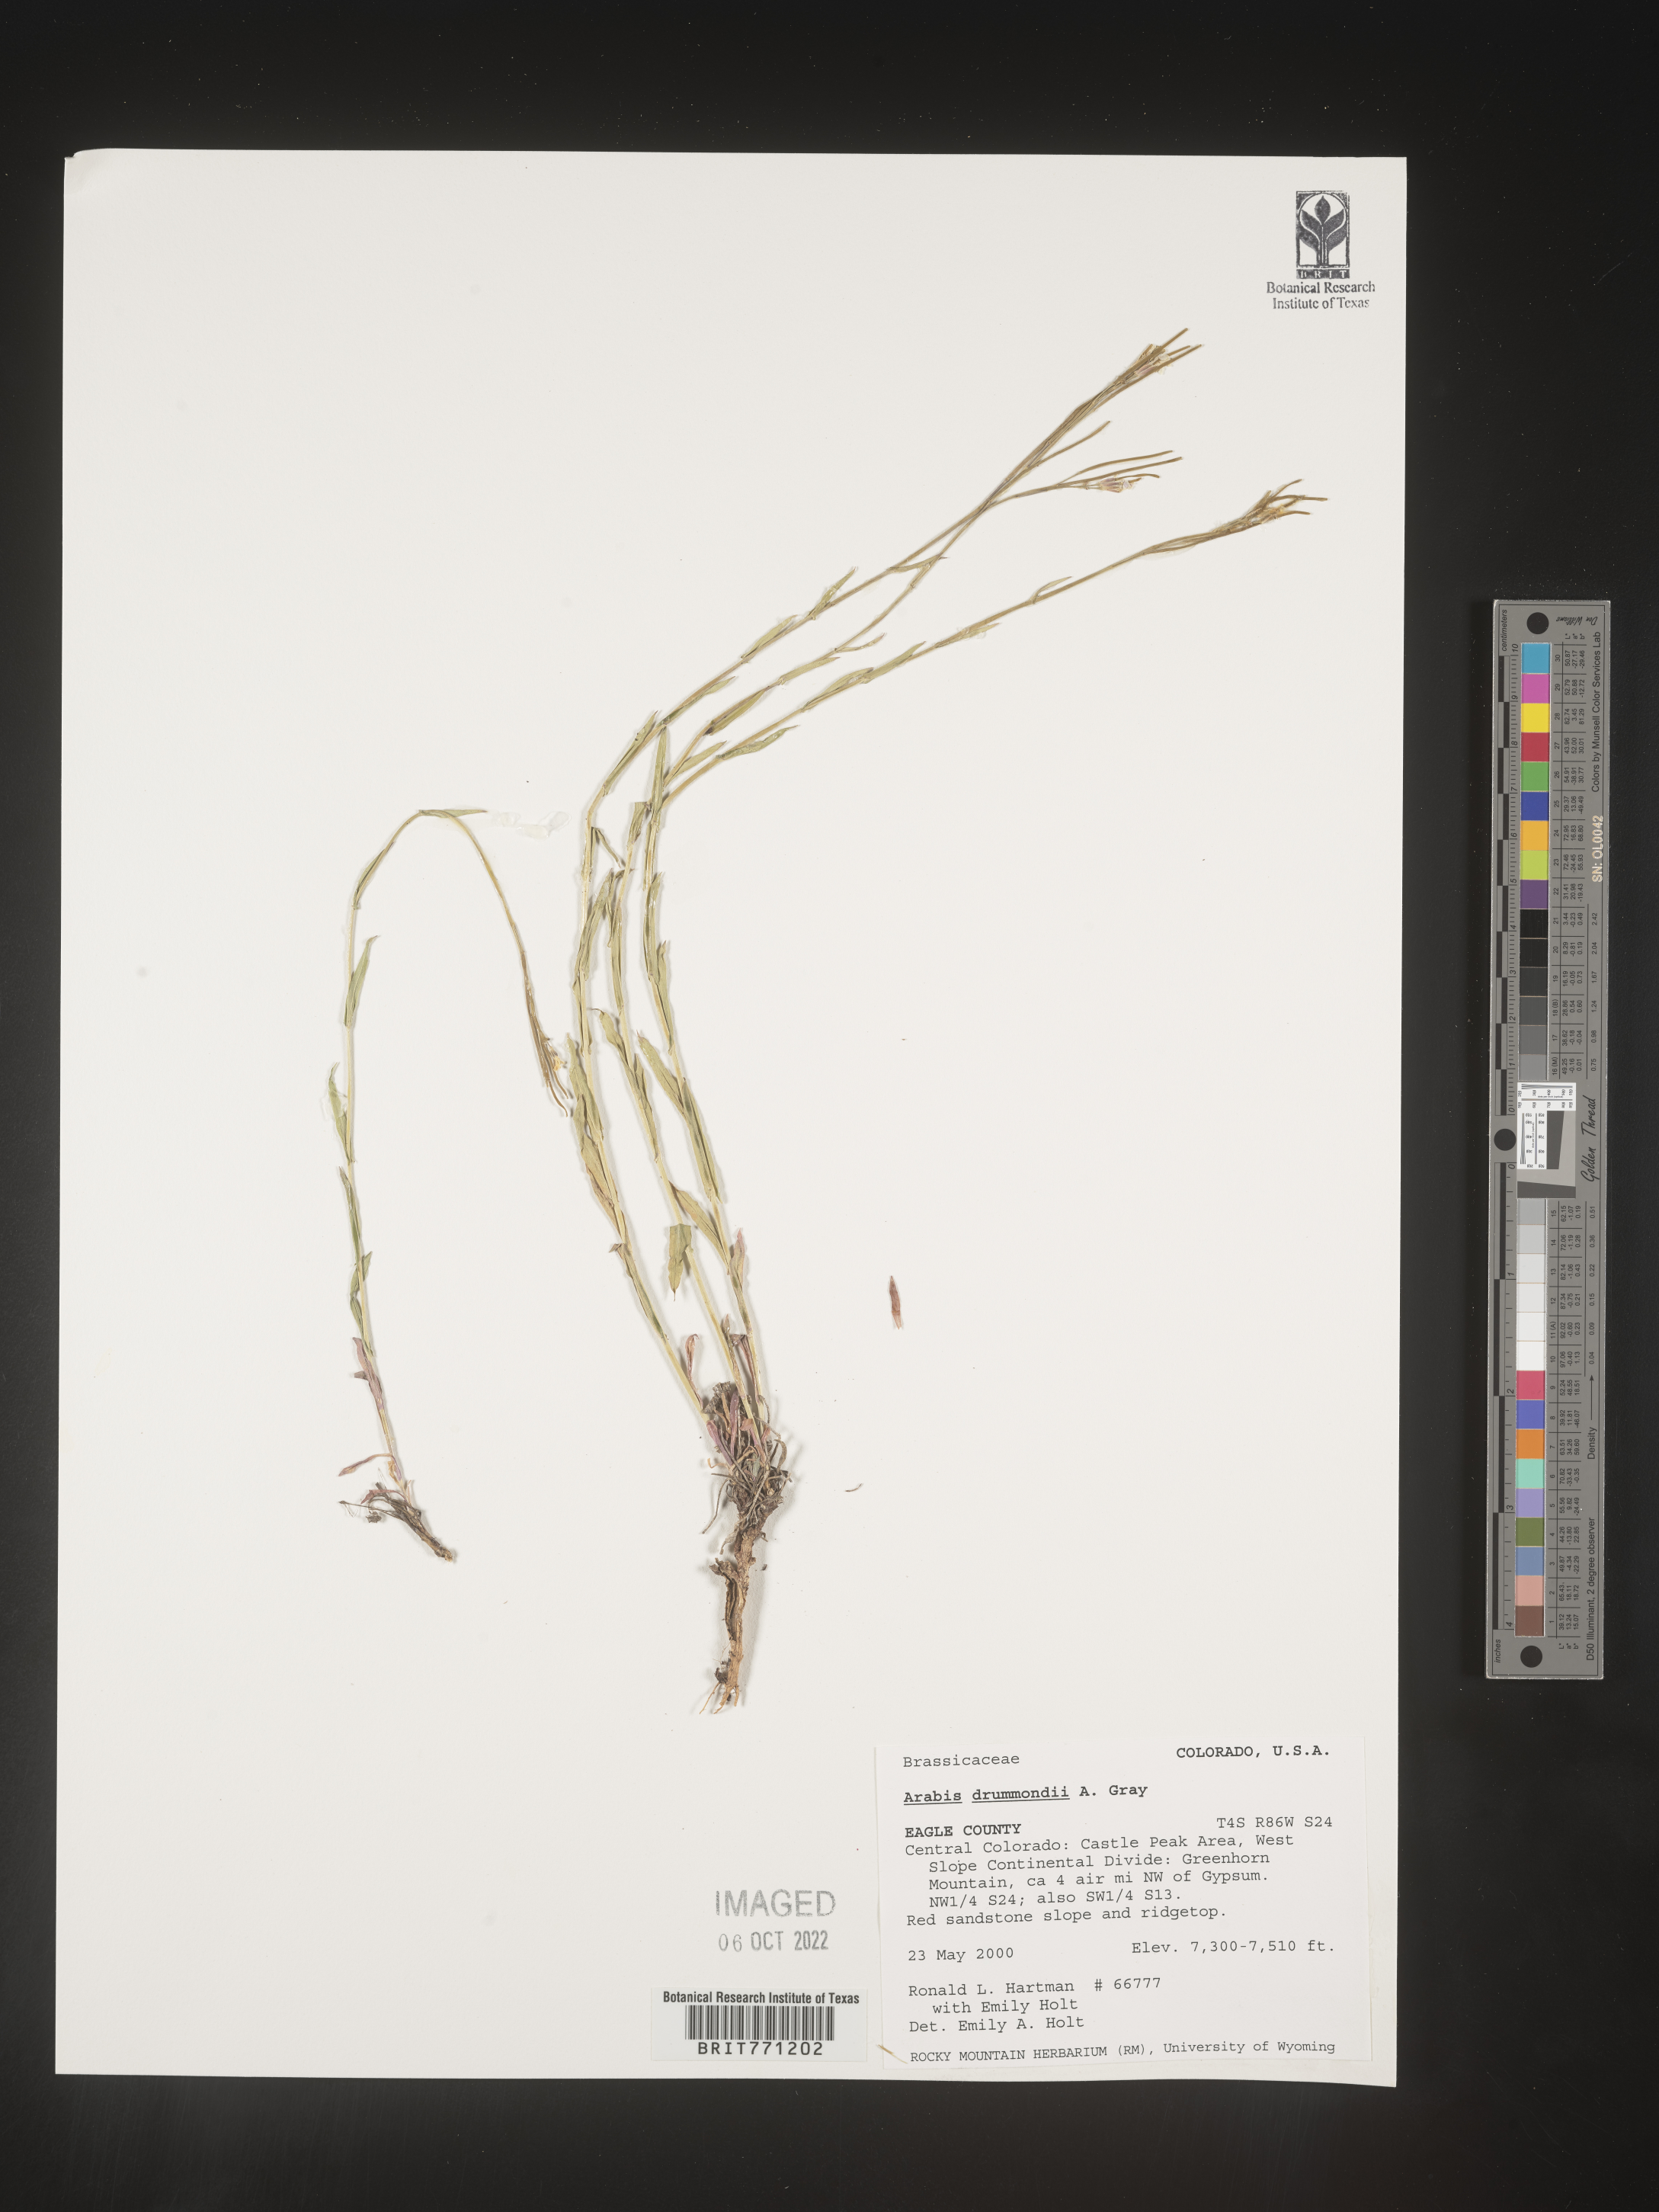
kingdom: Plantae
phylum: Tracheophyta
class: Magnoliopsida
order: Brassicales
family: Brassicaceae
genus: Boechera
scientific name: Boechera stricta
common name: Canadian rockcress
